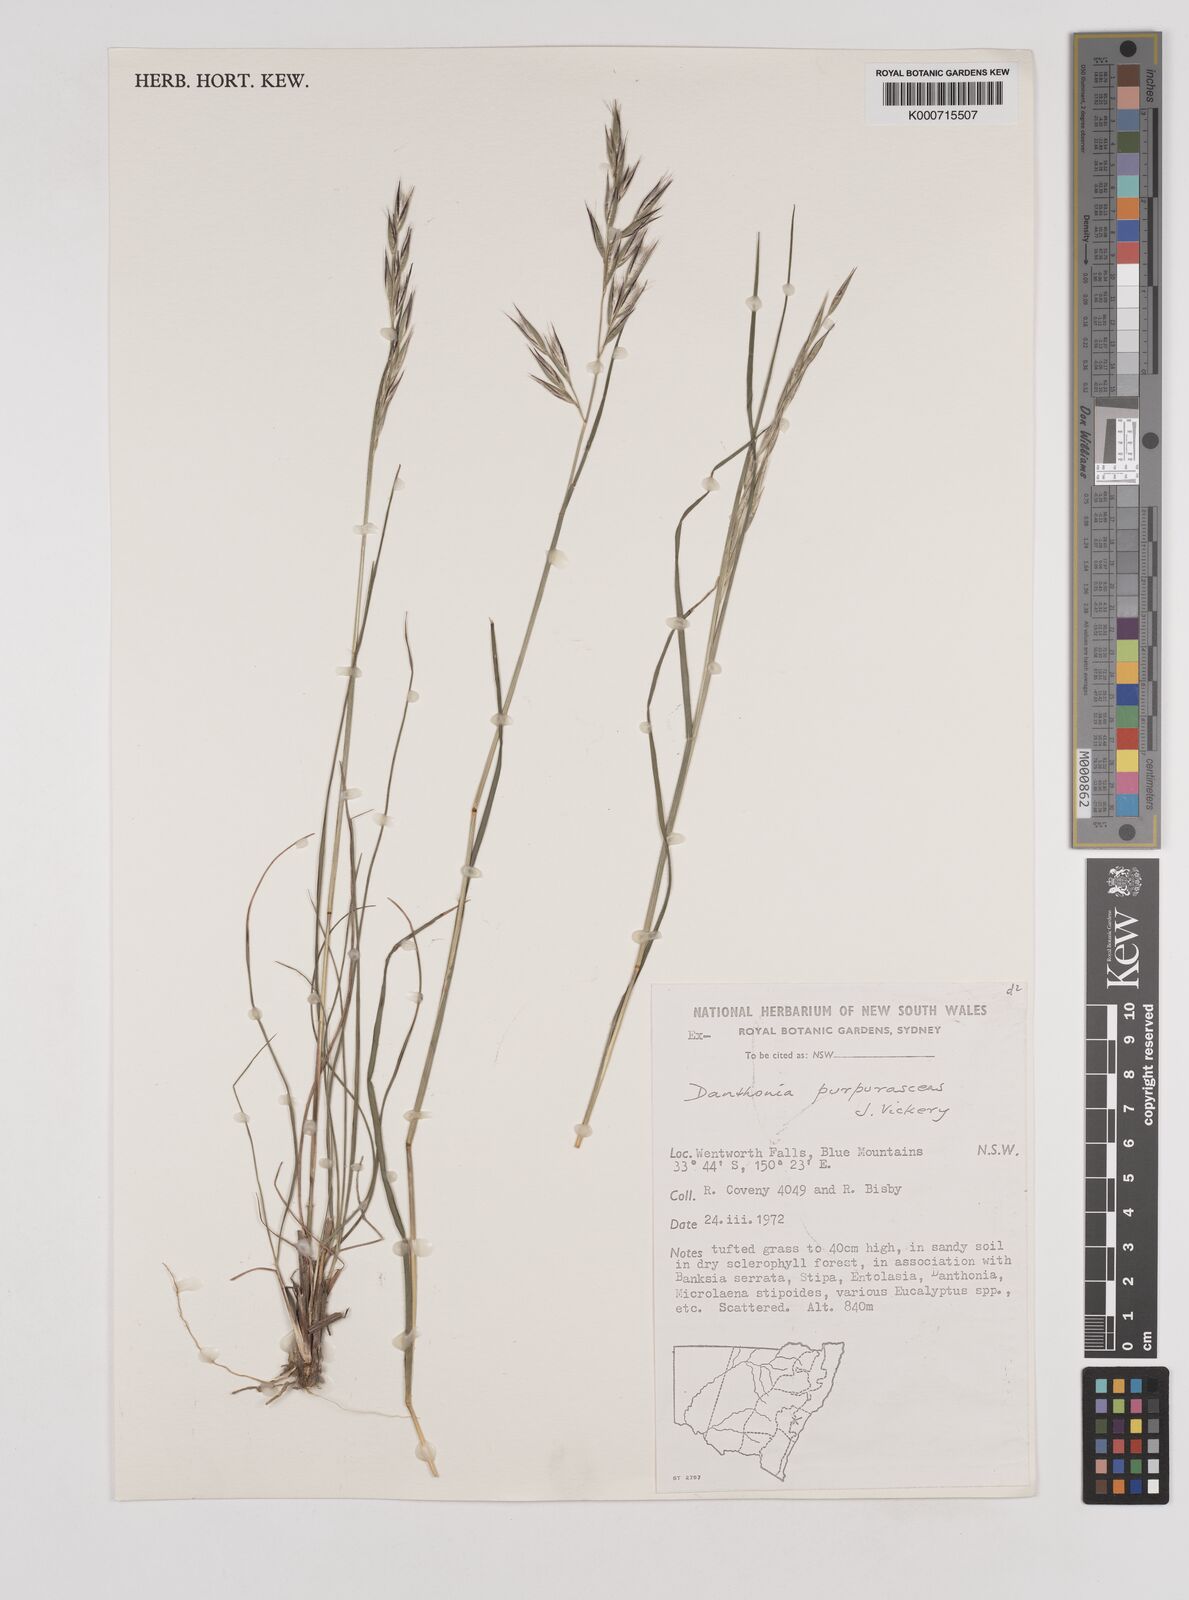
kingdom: Plantae
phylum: Tracheophyta
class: Liliopsida
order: Poales
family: Poaceae
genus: Rytidosperma
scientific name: Rytidosperma tenuius
